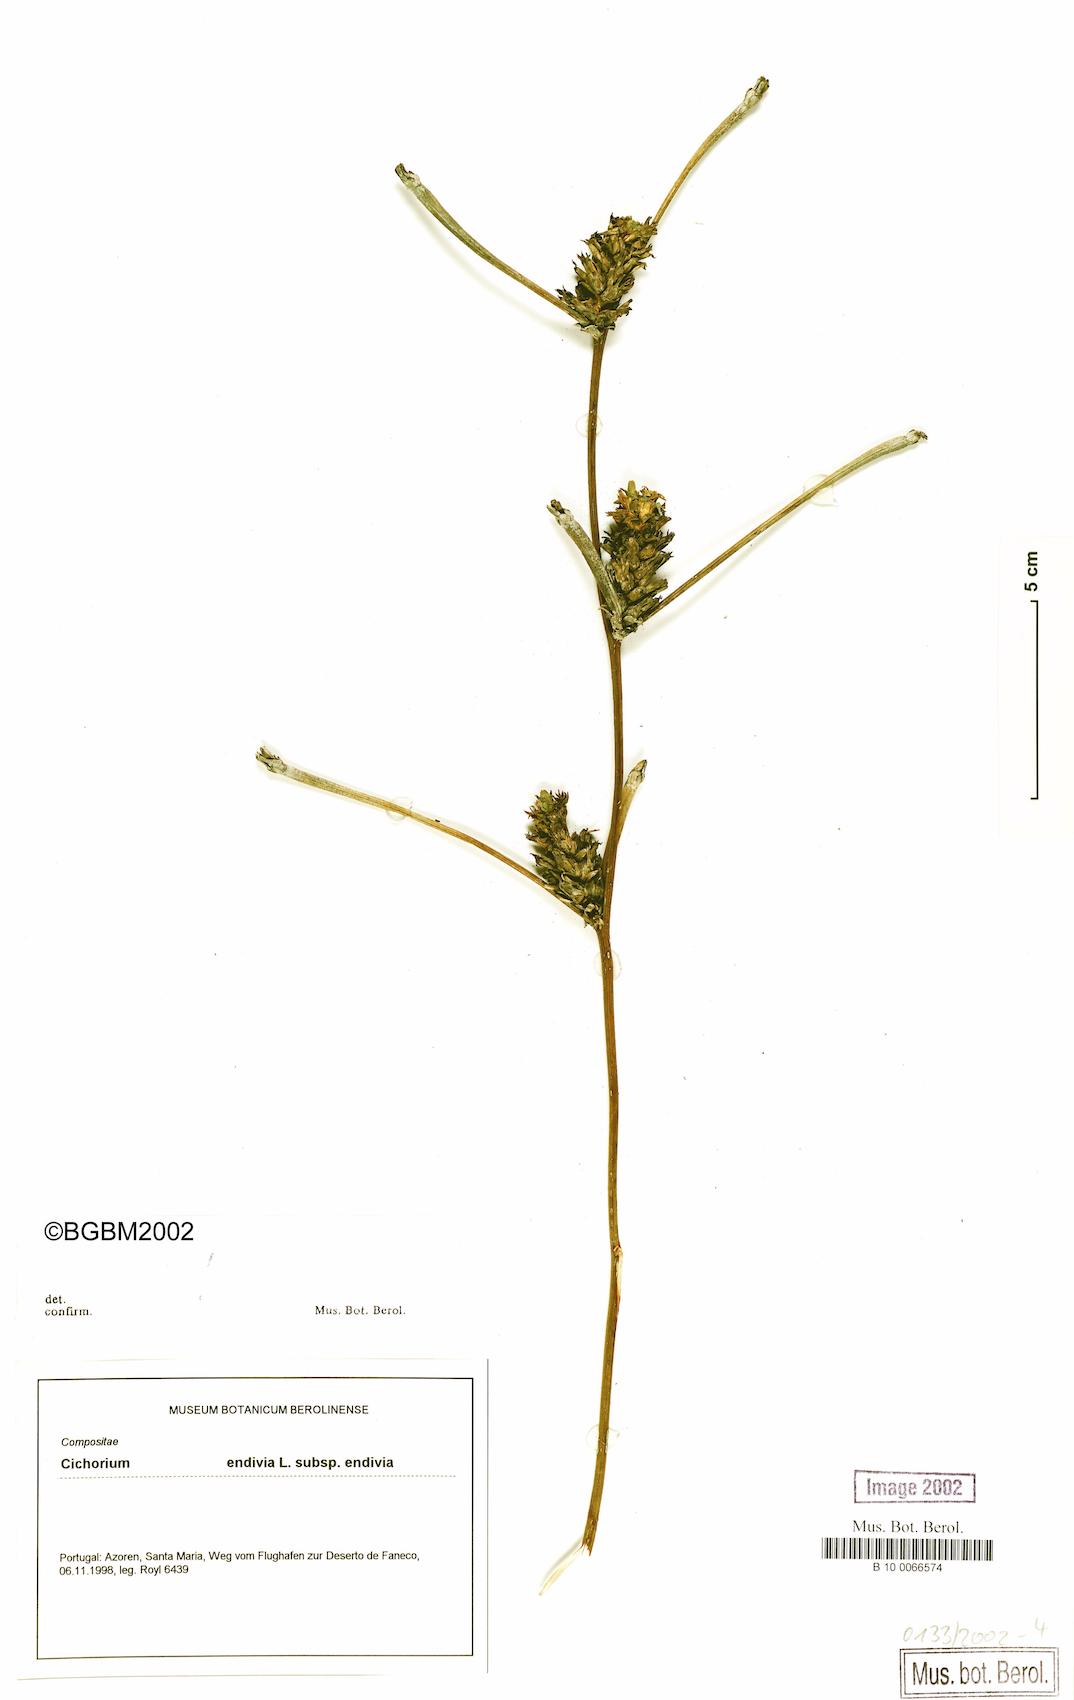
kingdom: Plantae
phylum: Tracheophyta
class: Magnoliopsida
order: Asterales
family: Asteraceae
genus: Cichorium
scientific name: Cichorium endivia
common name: Endive
